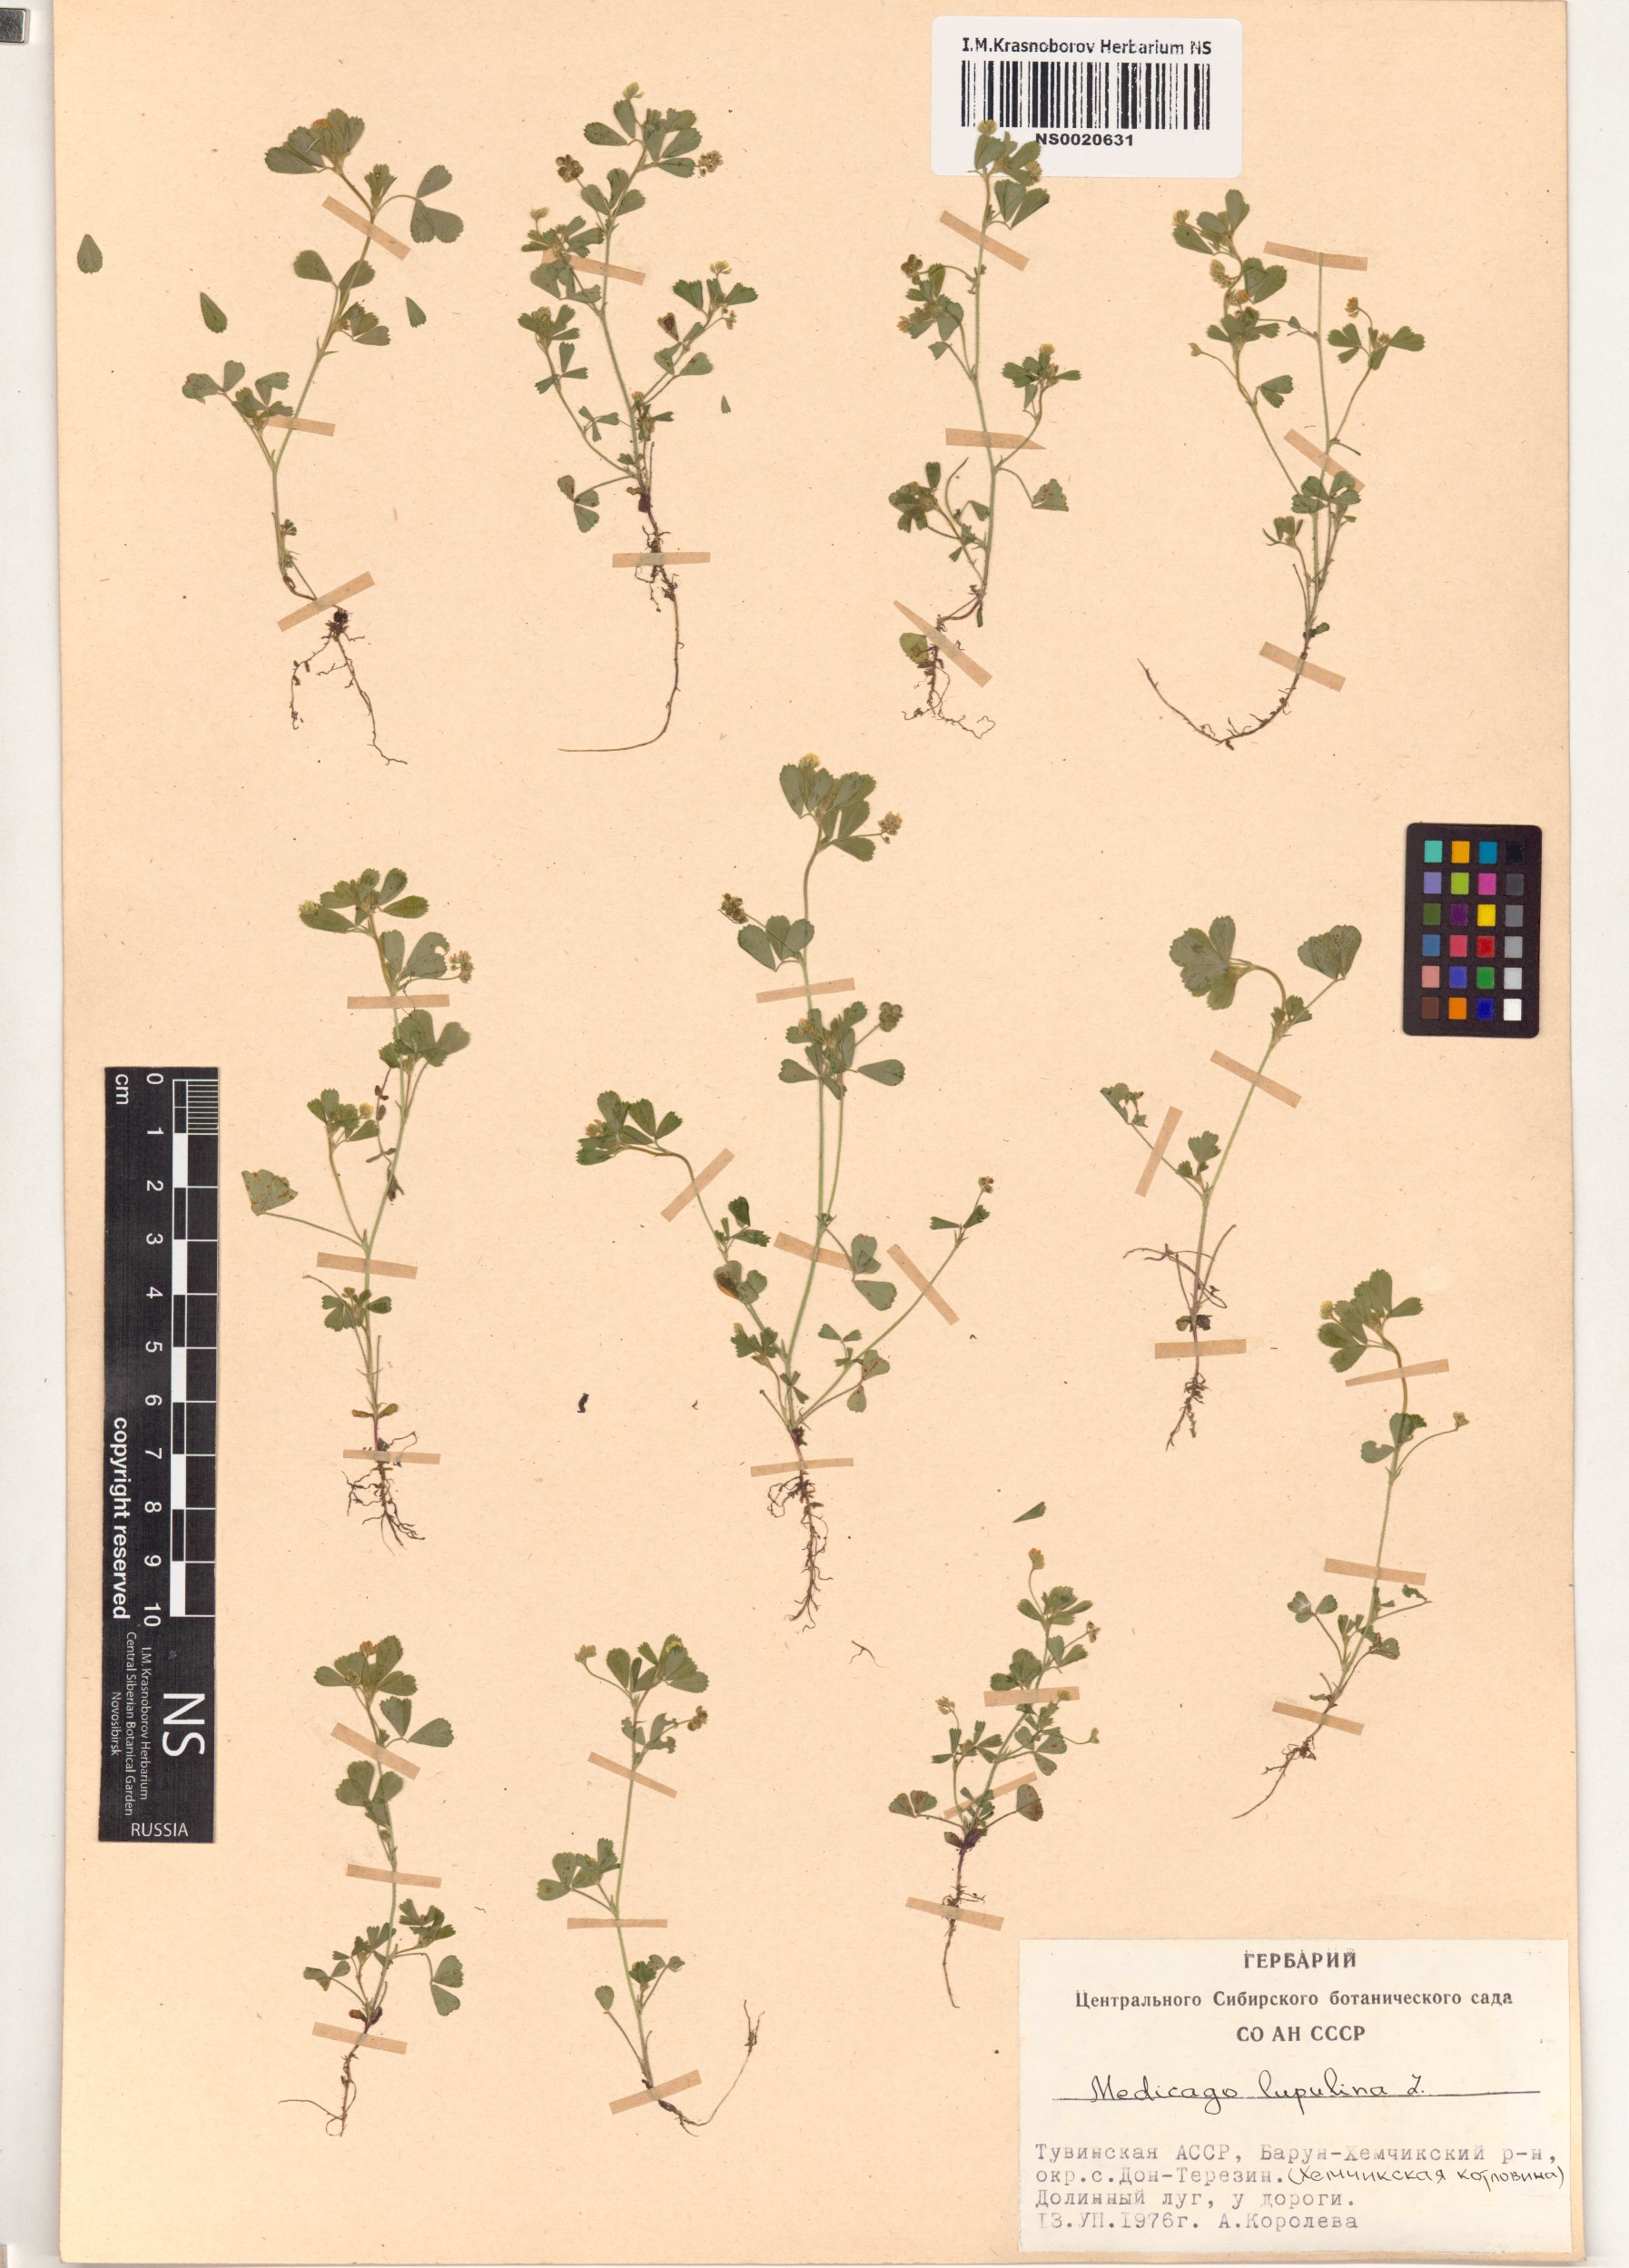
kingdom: Plantae
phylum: Tracheophyta
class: Magnoliopsida
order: Fabales
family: Fabaceae
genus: Medicago
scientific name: Medicago lupulina
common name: Black medick
